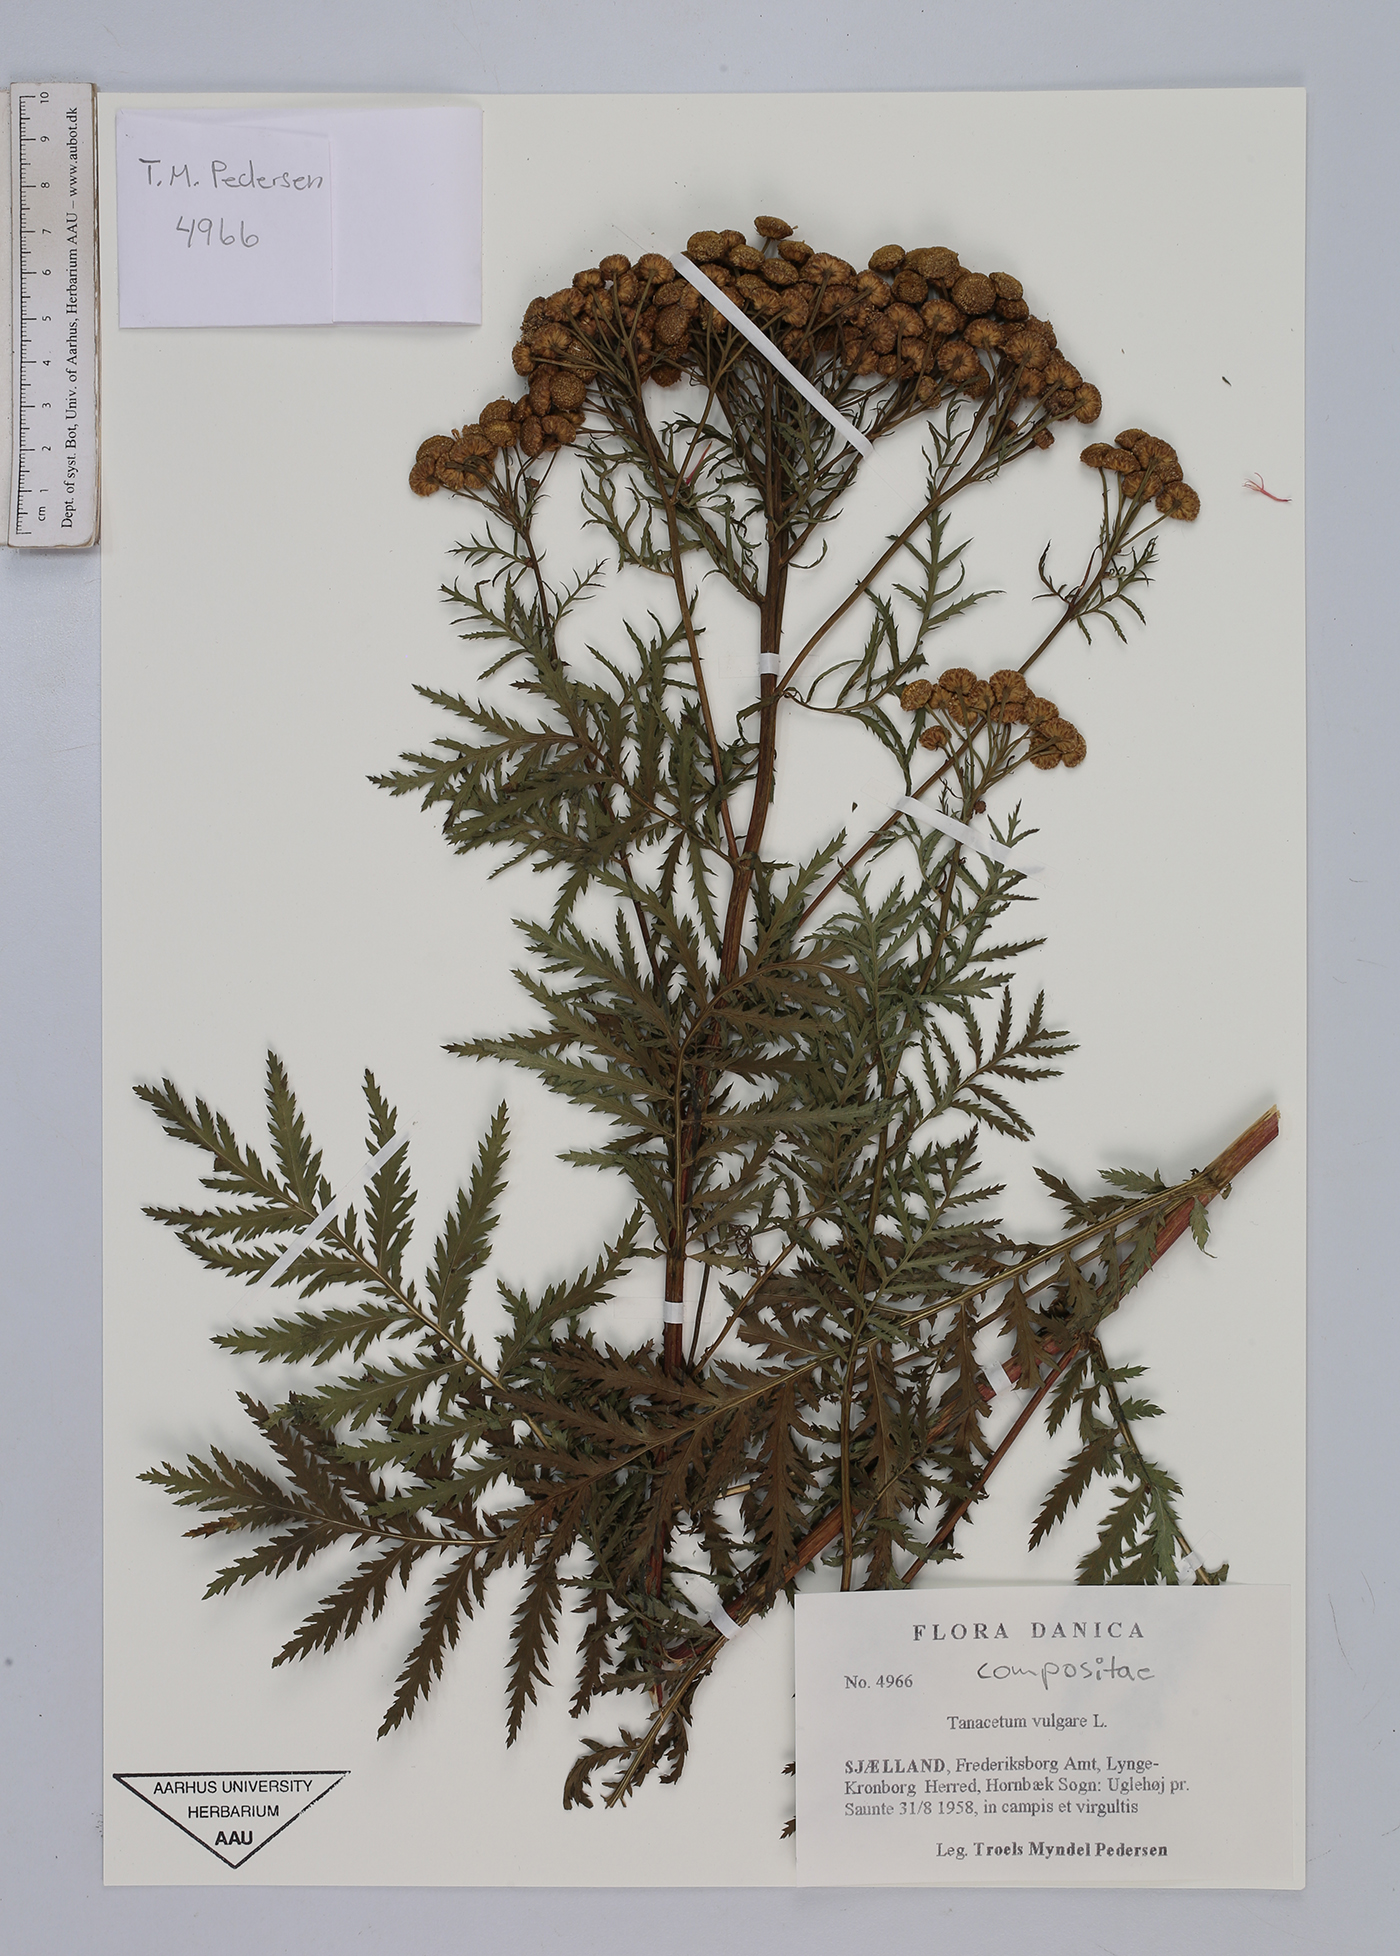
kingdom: Plantae
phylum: Tracheophyta
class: Magnoliopsida
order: Asterales
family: Asteraceae
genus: Tanacetum
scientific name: Tanacetum vulgare
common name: Common tansy
